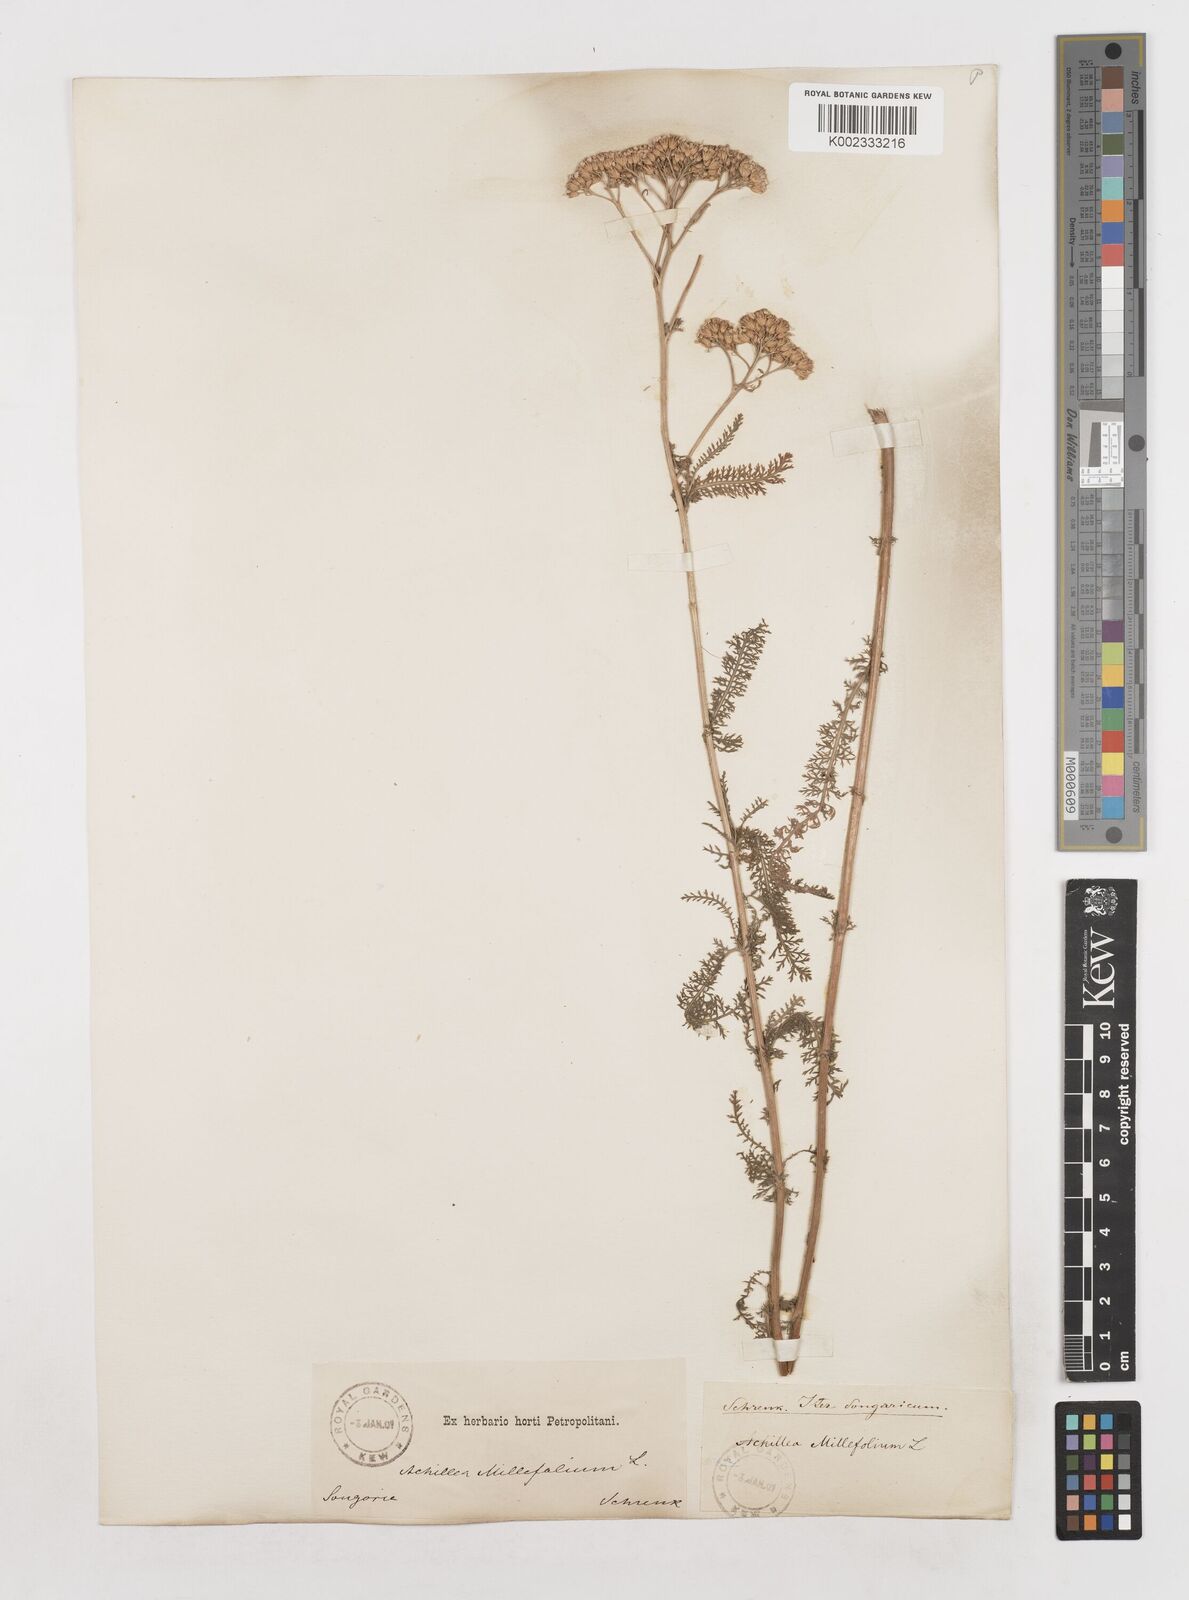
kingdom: Plantae
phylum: Tracheophyta
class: Magnoliopsida
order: Asterales
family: Asteraceae
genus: Achillea
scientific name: Achillea millefolium
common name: Yarrow
